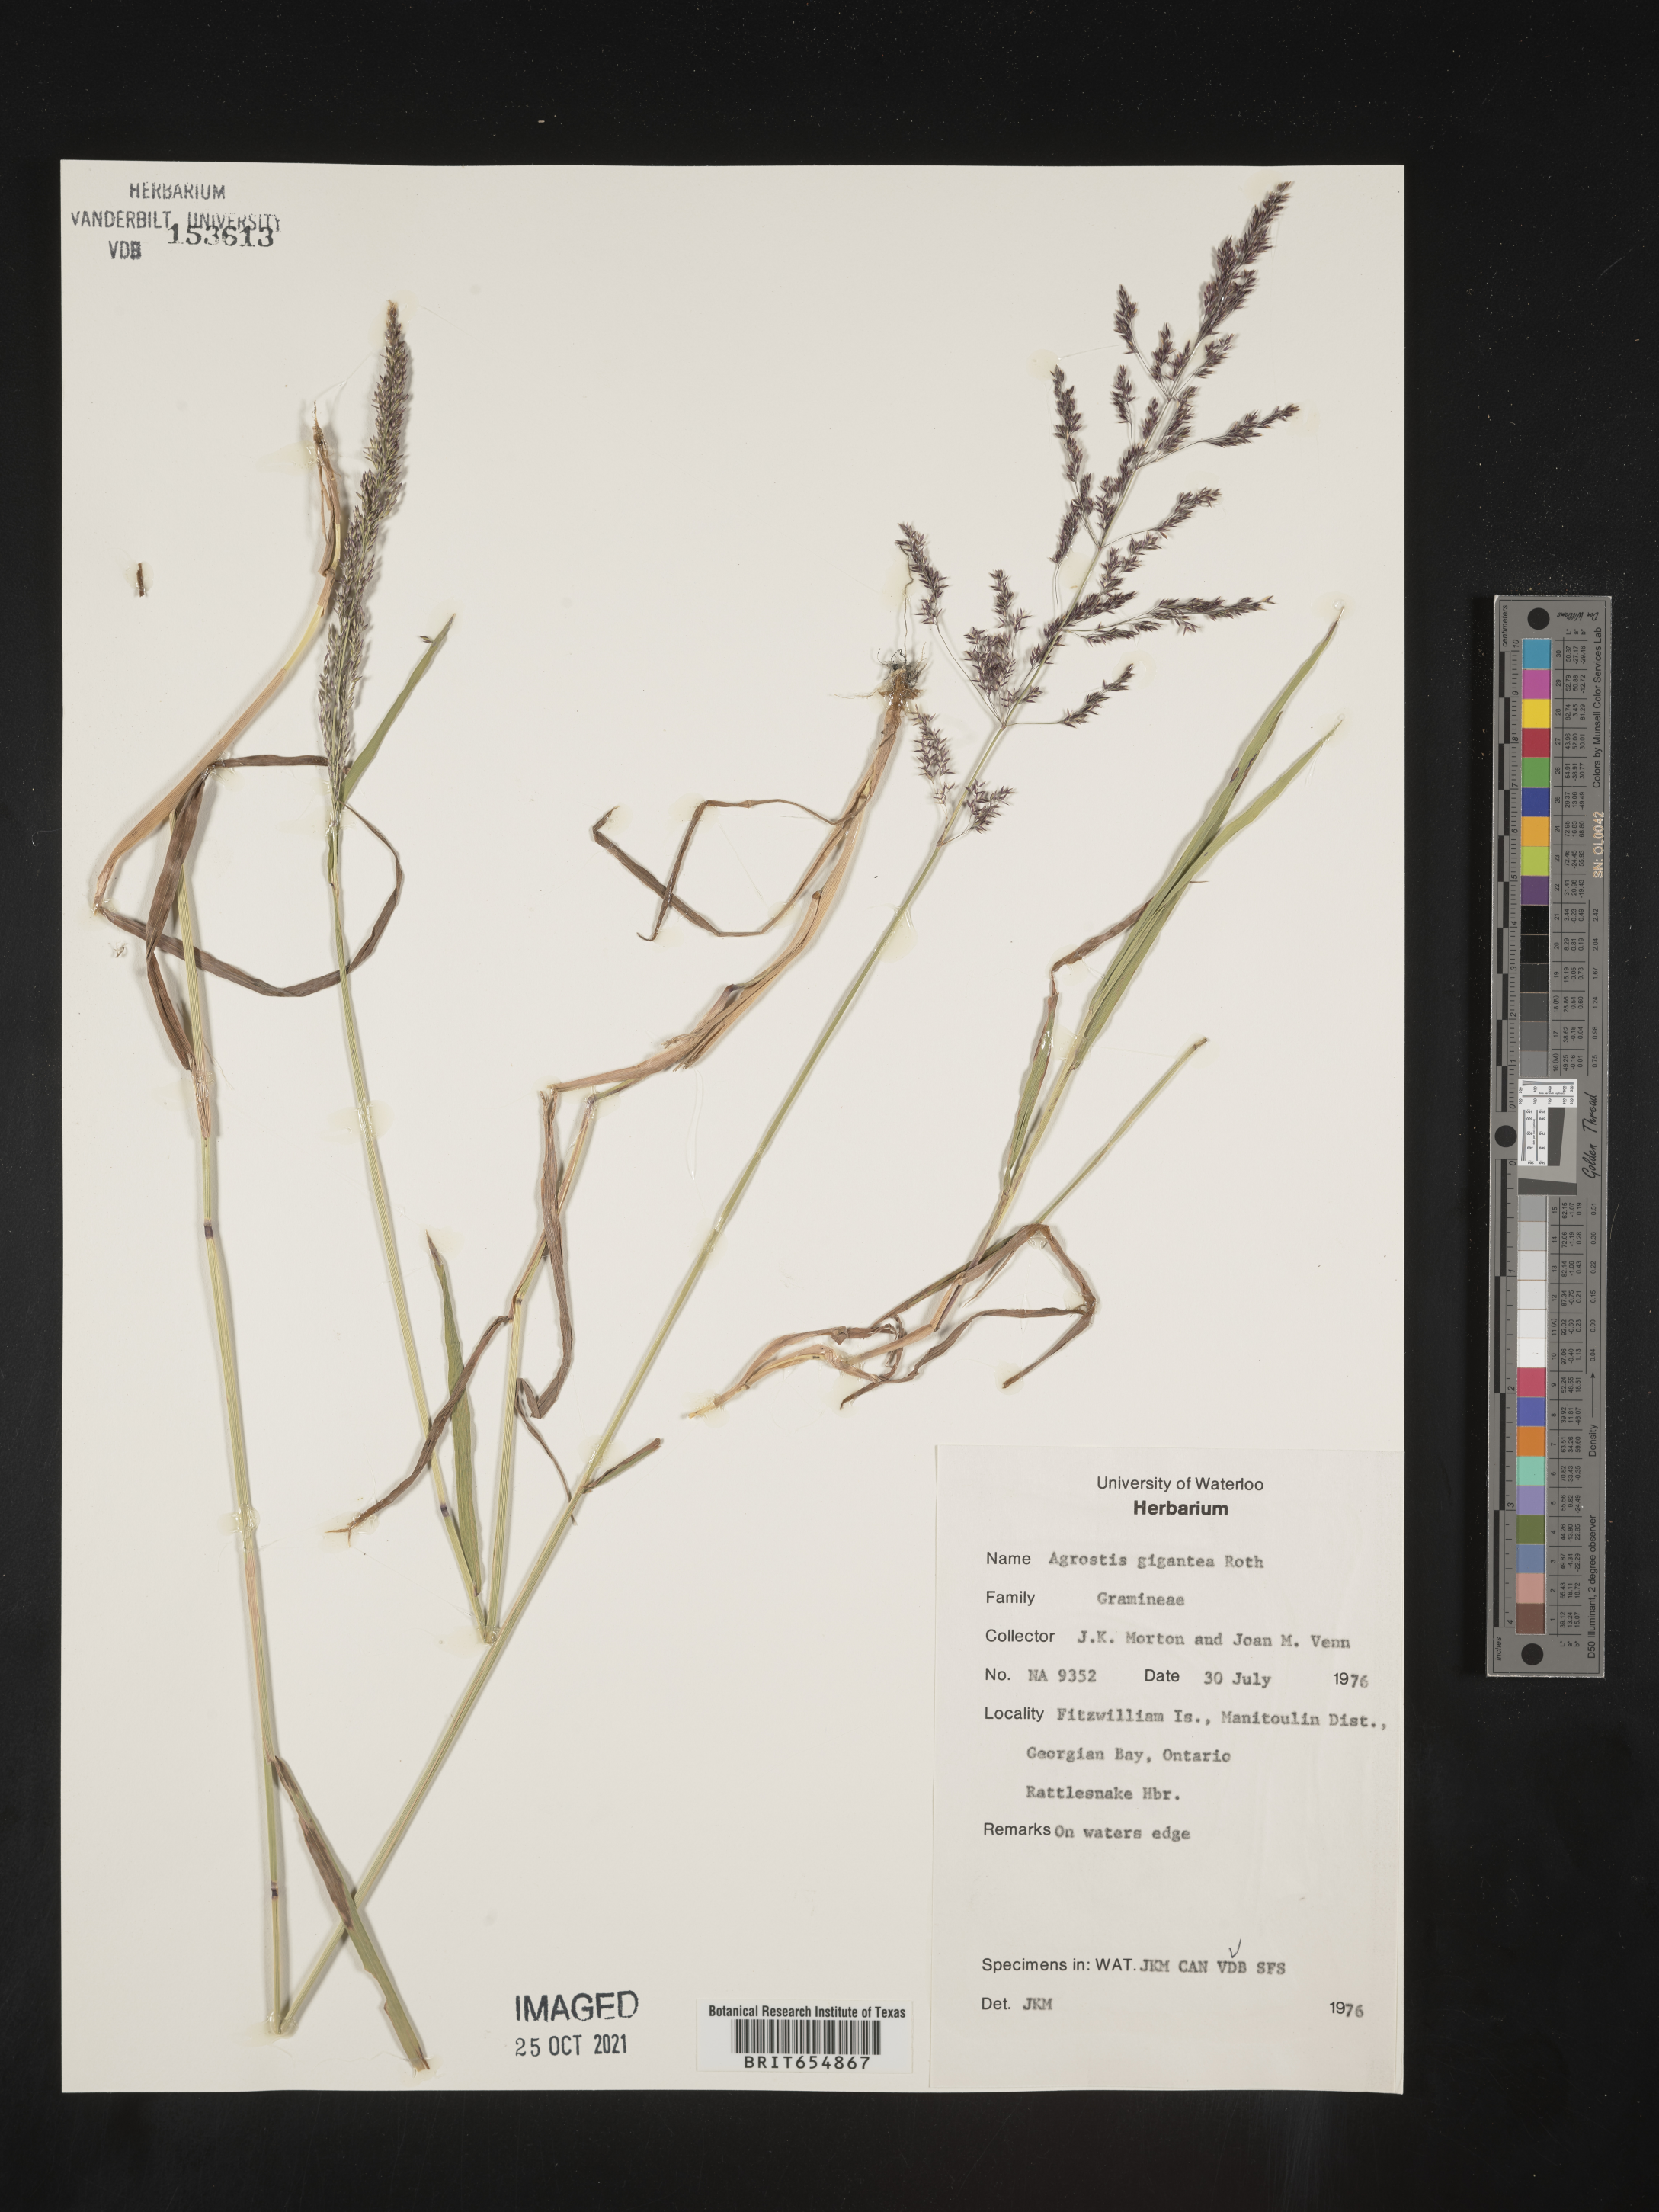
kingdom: Plantae
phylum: Tracheophyta
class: Liliopsida
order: Poales
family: Poaceae
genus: Agrostis
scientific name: Agrostis
